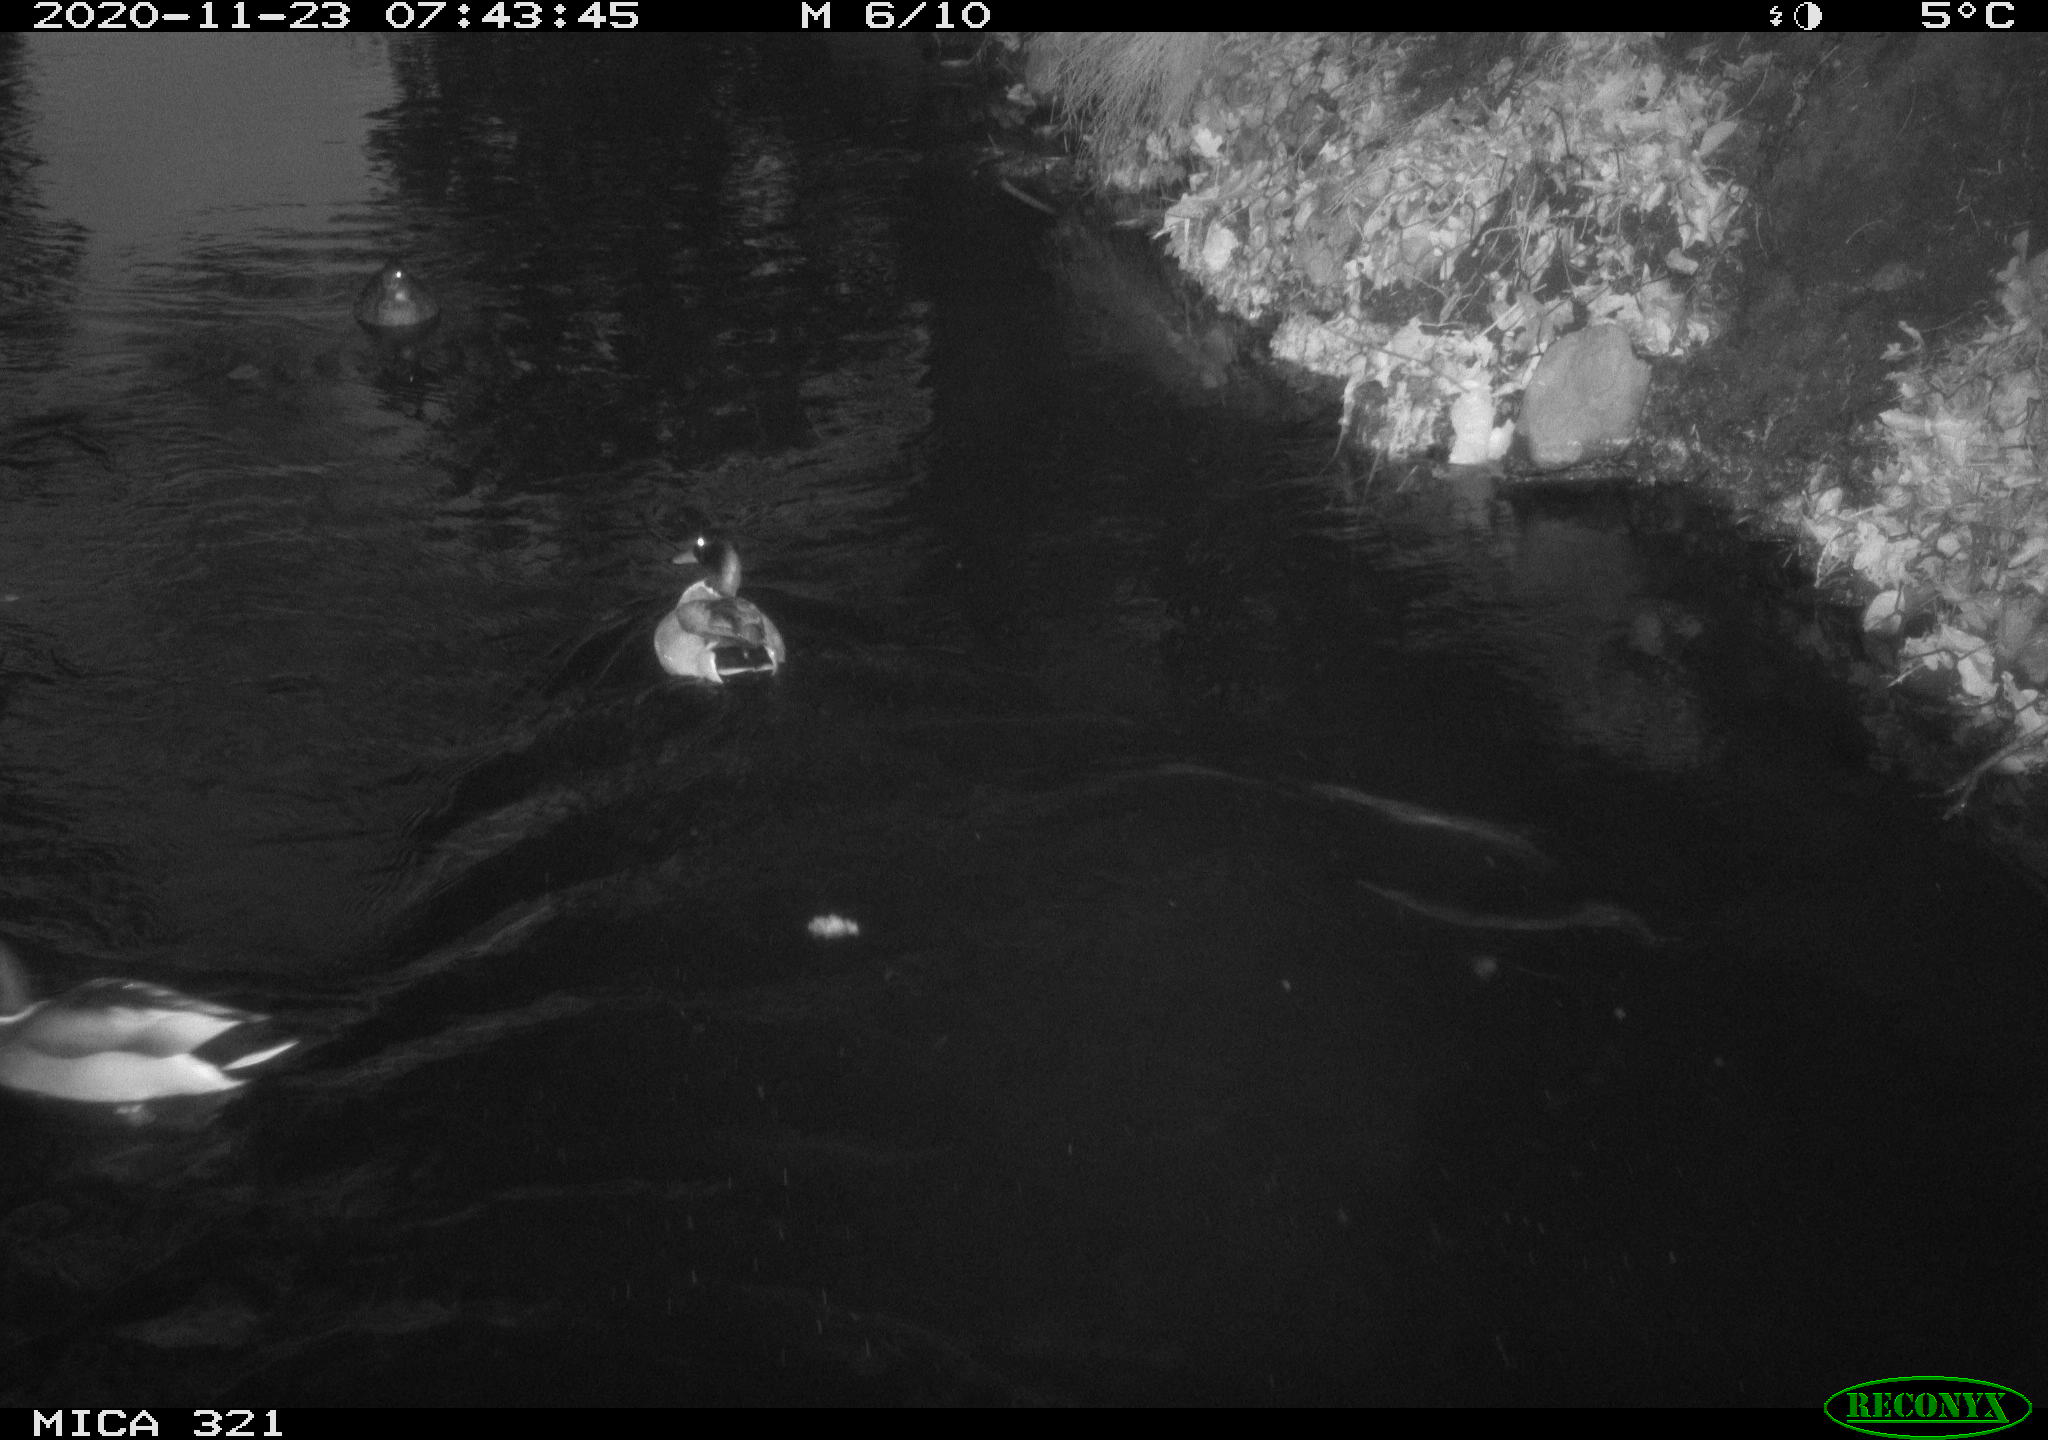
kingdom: Animalia
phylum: Chordata
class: Aves
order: Anseriformes
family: Anatidae
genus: Anas
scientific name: Anas platyrhynchos
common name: Mallard
